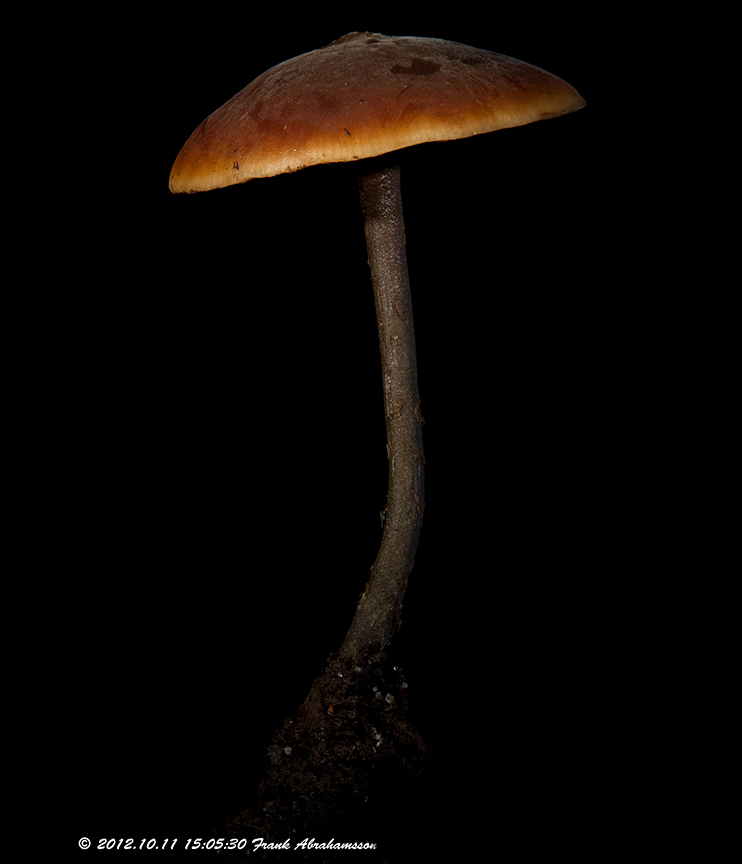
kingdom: Fungi
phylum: Basidiomycota
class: Agaricomycetes
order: Agaricales
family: Macrocystidiaceae
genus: Macrocystidia
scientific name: Macrocystidia cucumis
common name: agurkehat
